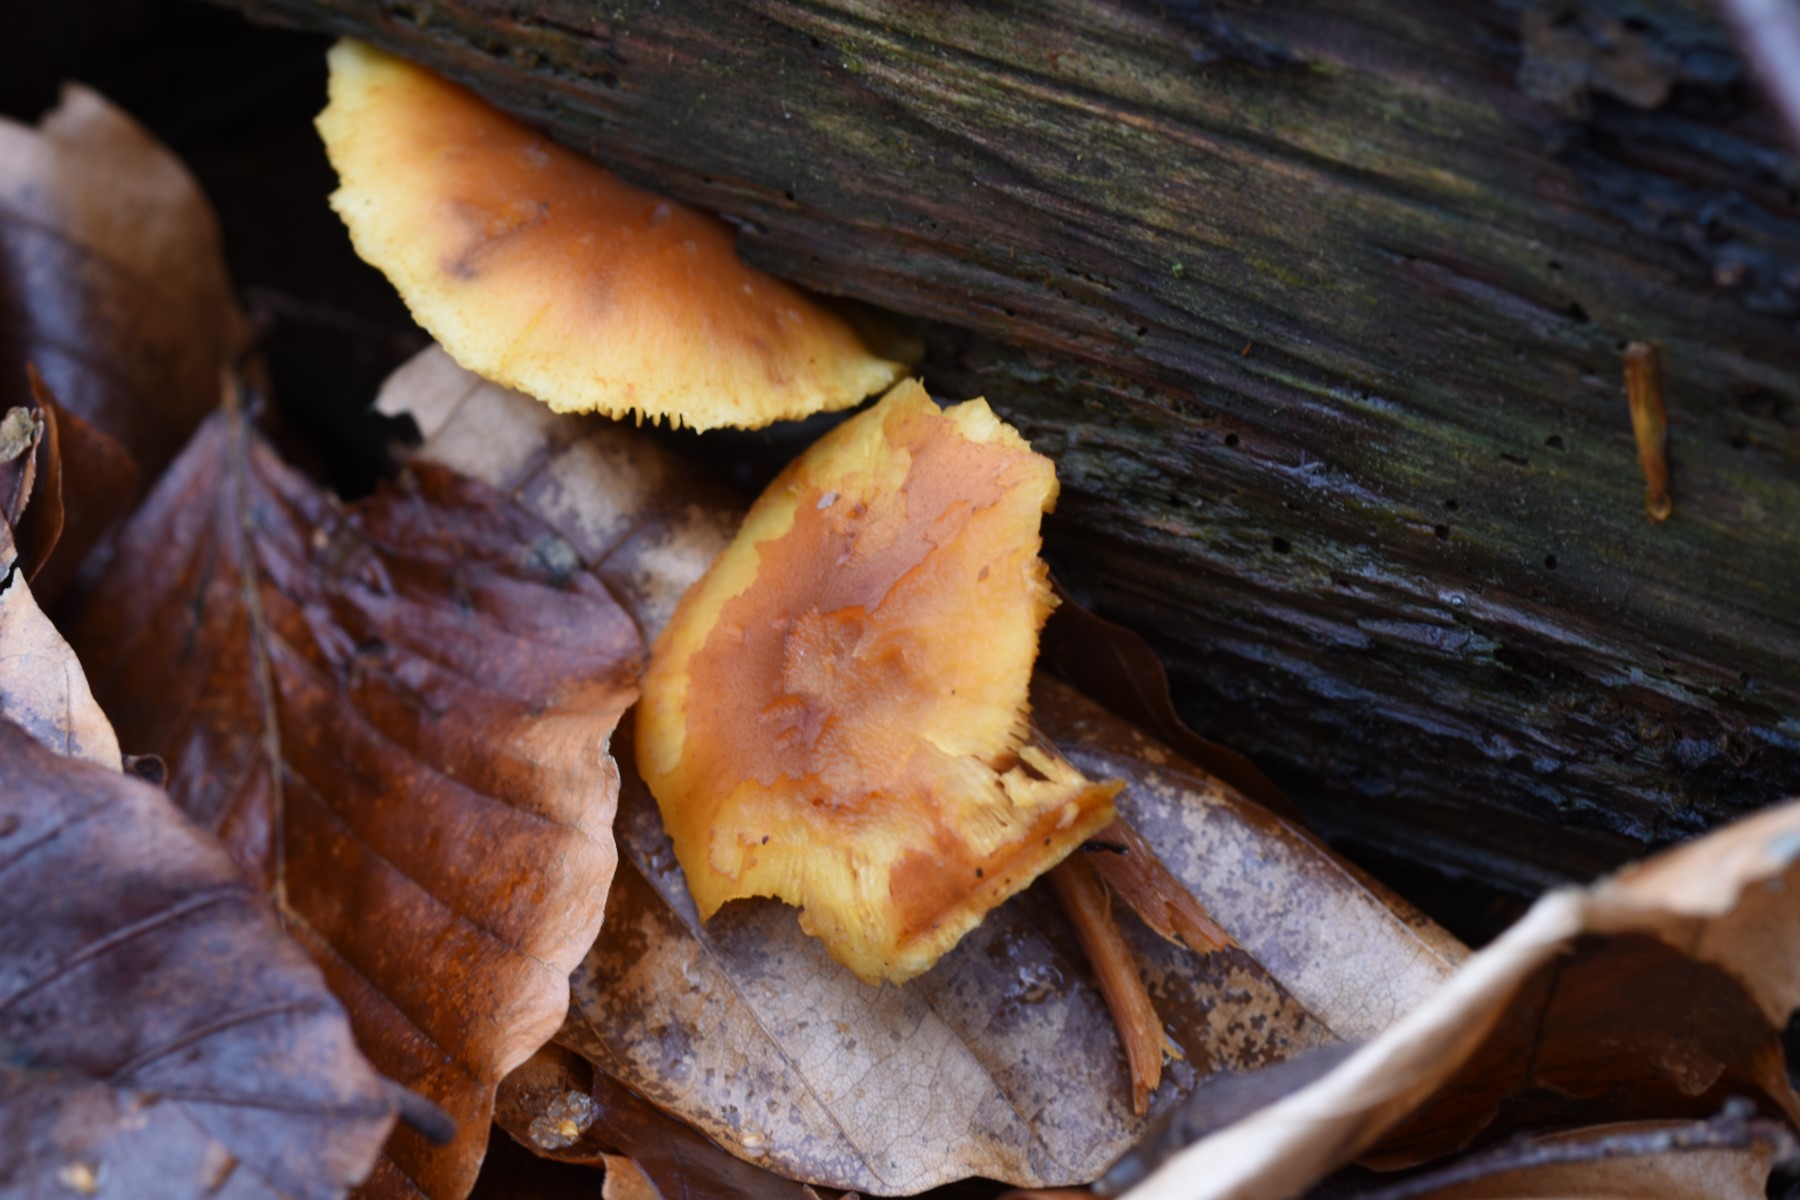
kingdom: Fungi
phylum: Basidiomycota
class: Agaricomycetes
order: Agaricales
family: Hymenogastraceae
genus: Gymnopilus
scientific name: Gymnopilus penetrans
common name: plettet flammehat
